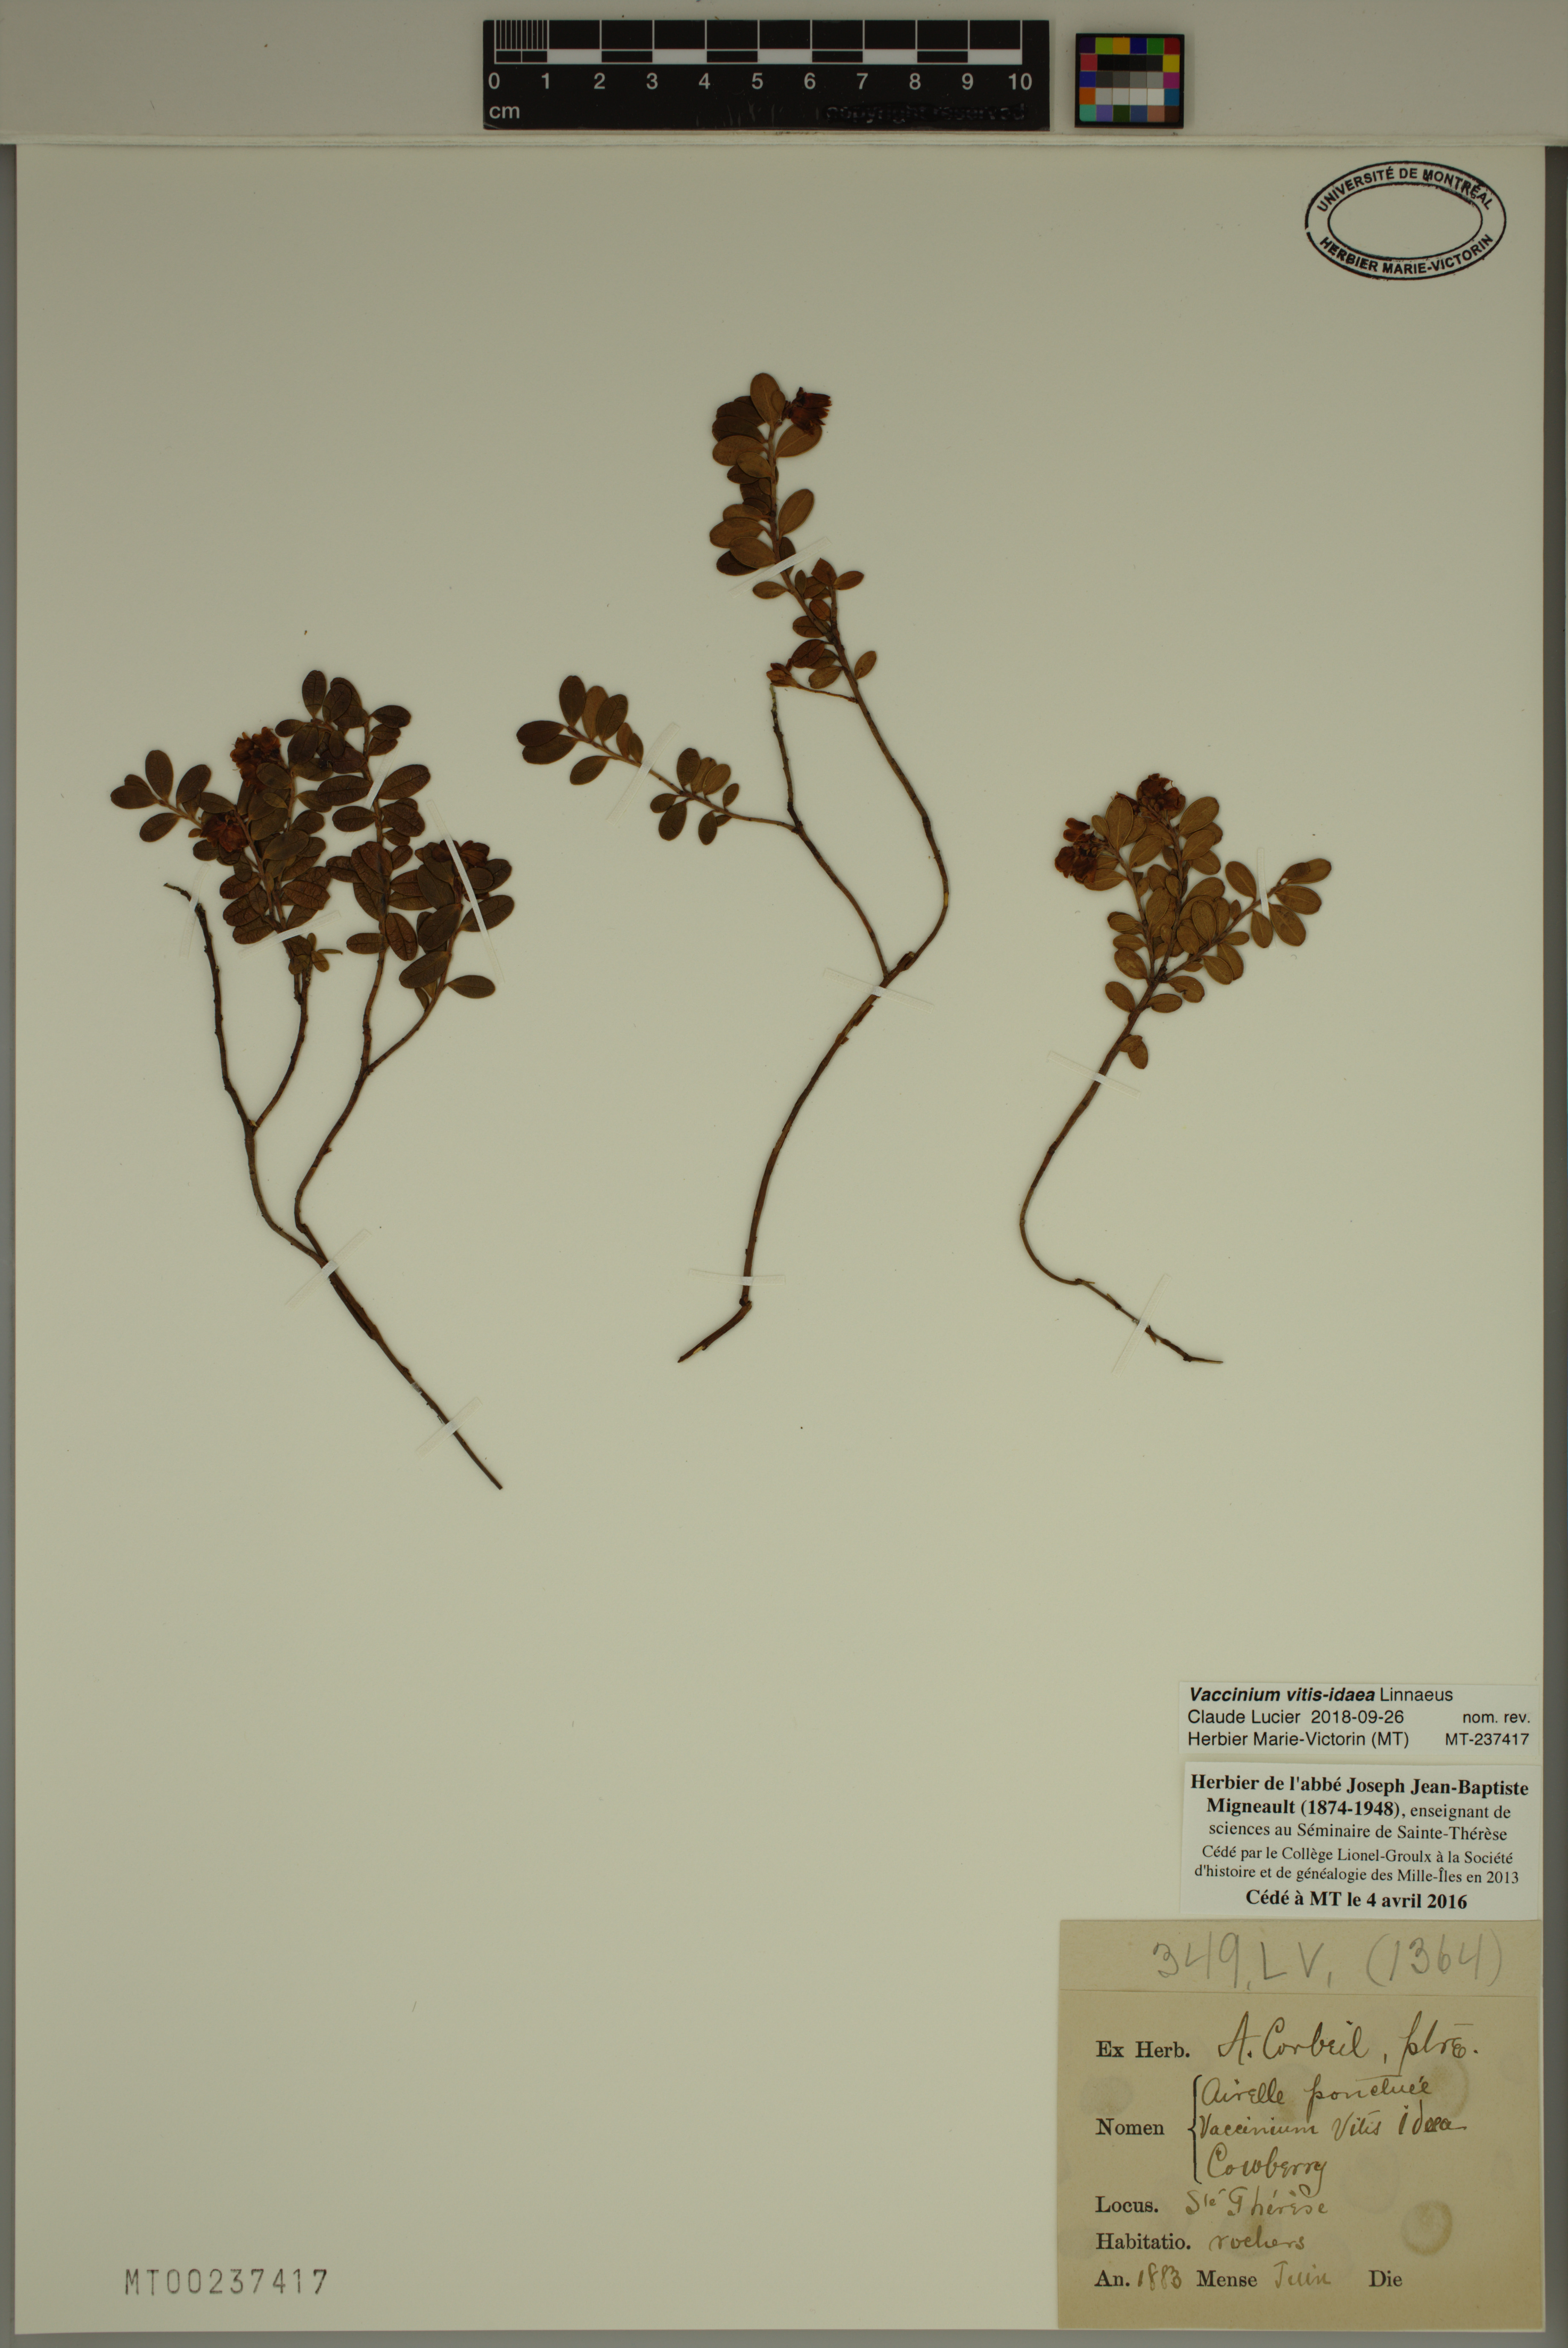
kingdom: Plantae
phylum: Tracheophyta
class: Magnoliopsida
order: Ericales
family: Ericaceae
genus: Vaccinium
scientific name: Vaccinium vitis-idaea
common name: Cowberry
